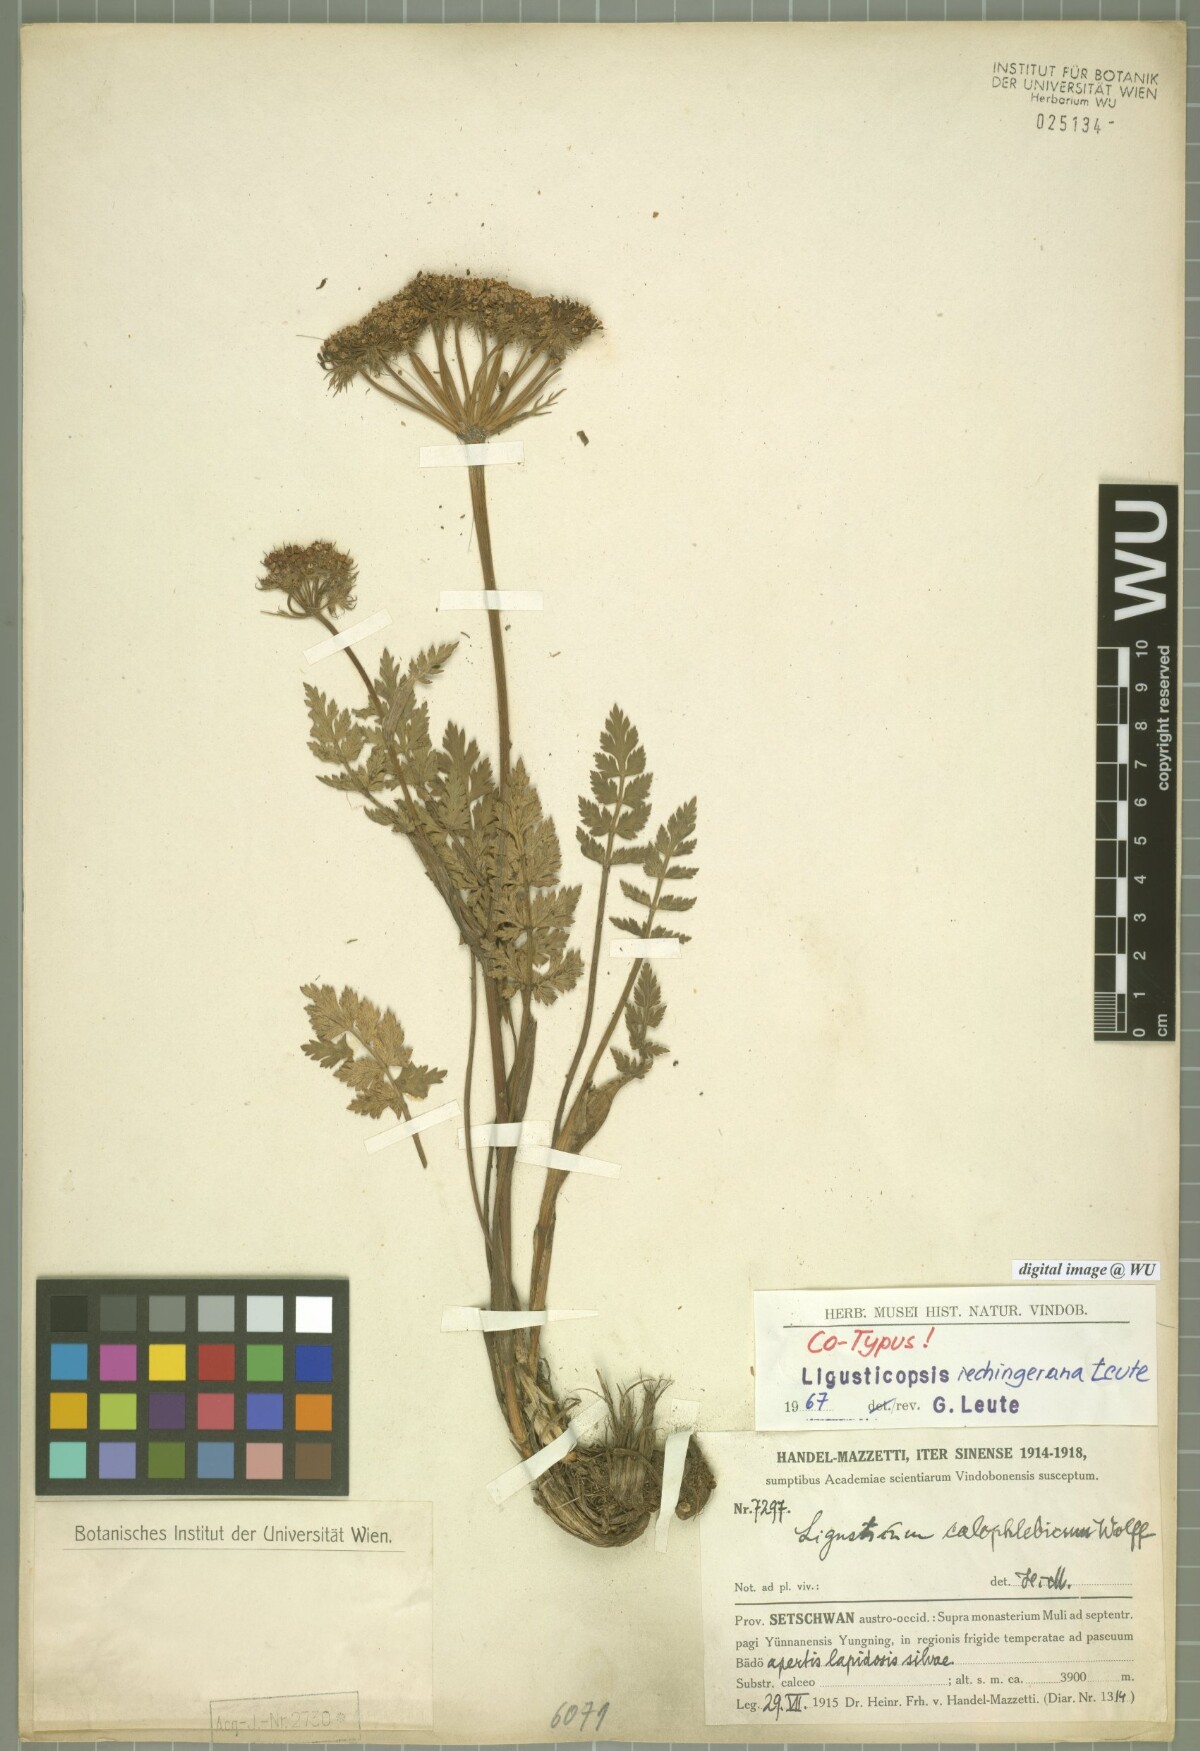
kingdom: Plantae
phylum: Tracheophyta
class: Magnoliopsida
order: Apiales
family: Apiaceae
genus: Ligusticopsis
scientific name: Ligusticopsis rechingerana
